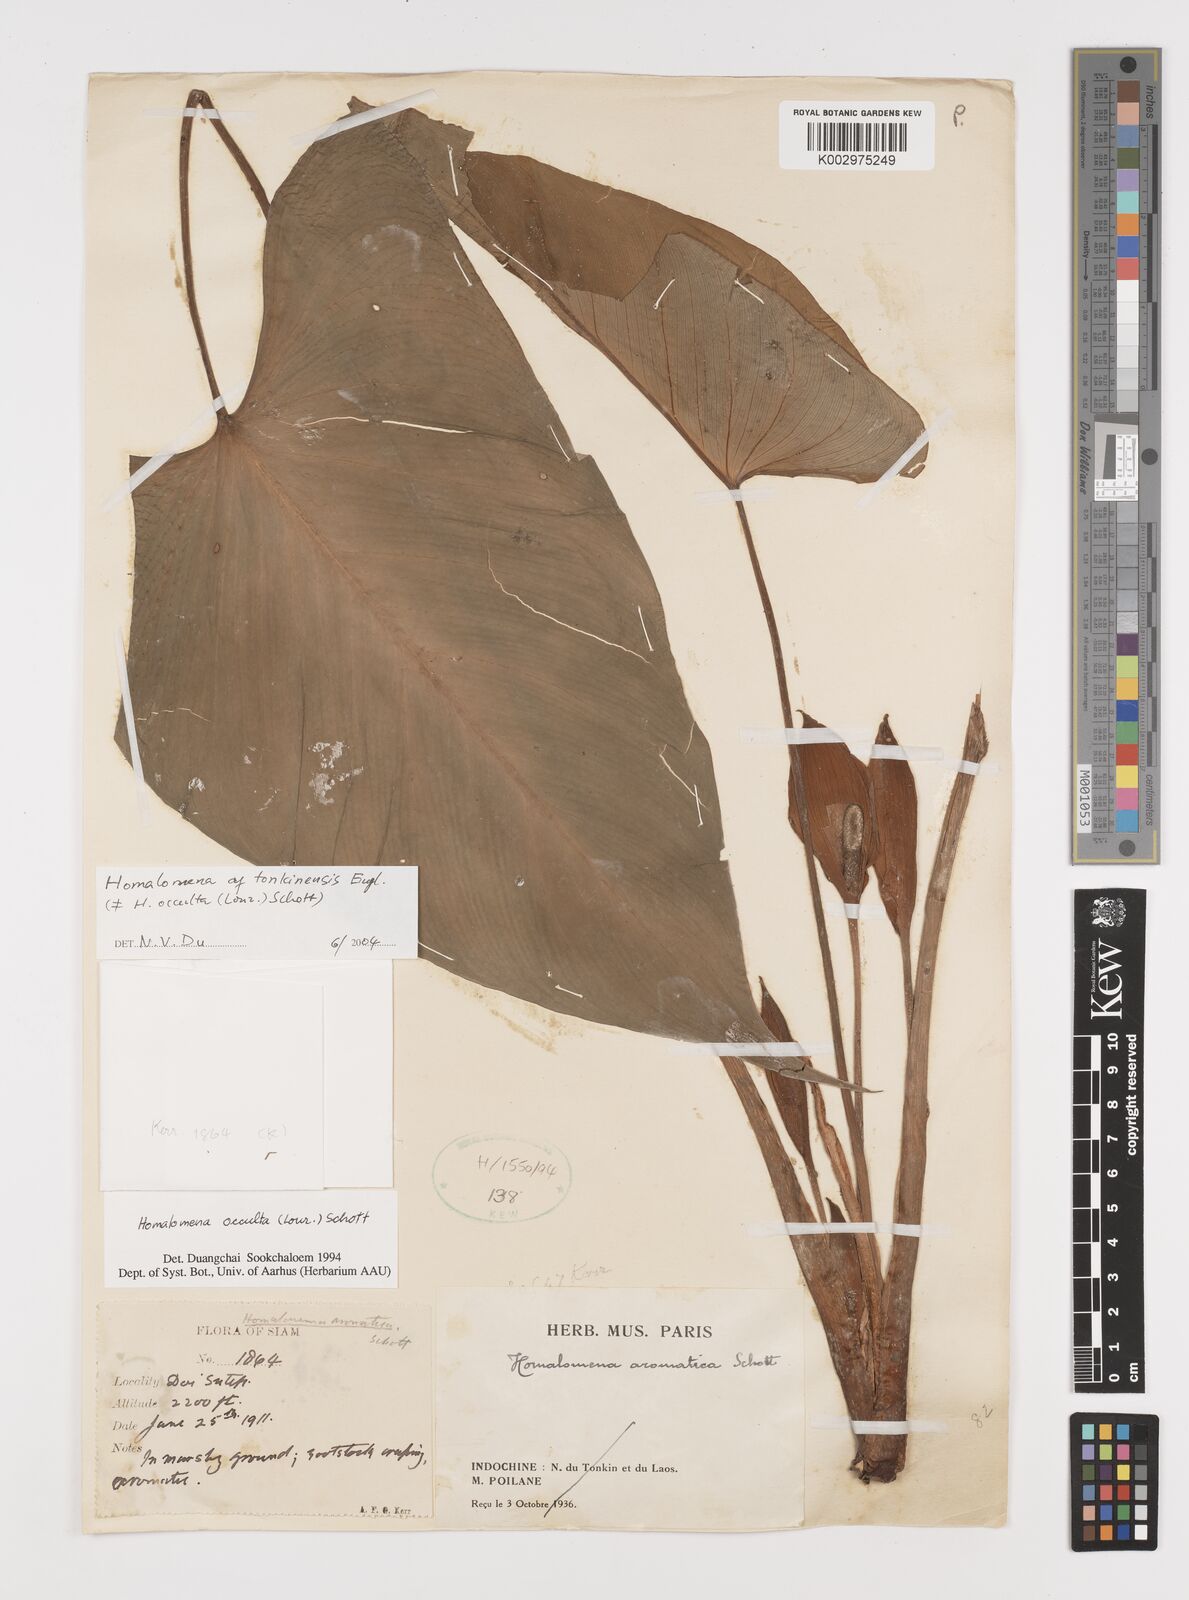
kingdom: Plantae
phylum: Tracheophyta
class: Liliopsida
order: Alismatales
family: Araceae
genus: Homalomena
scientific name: Homalomena occulta
